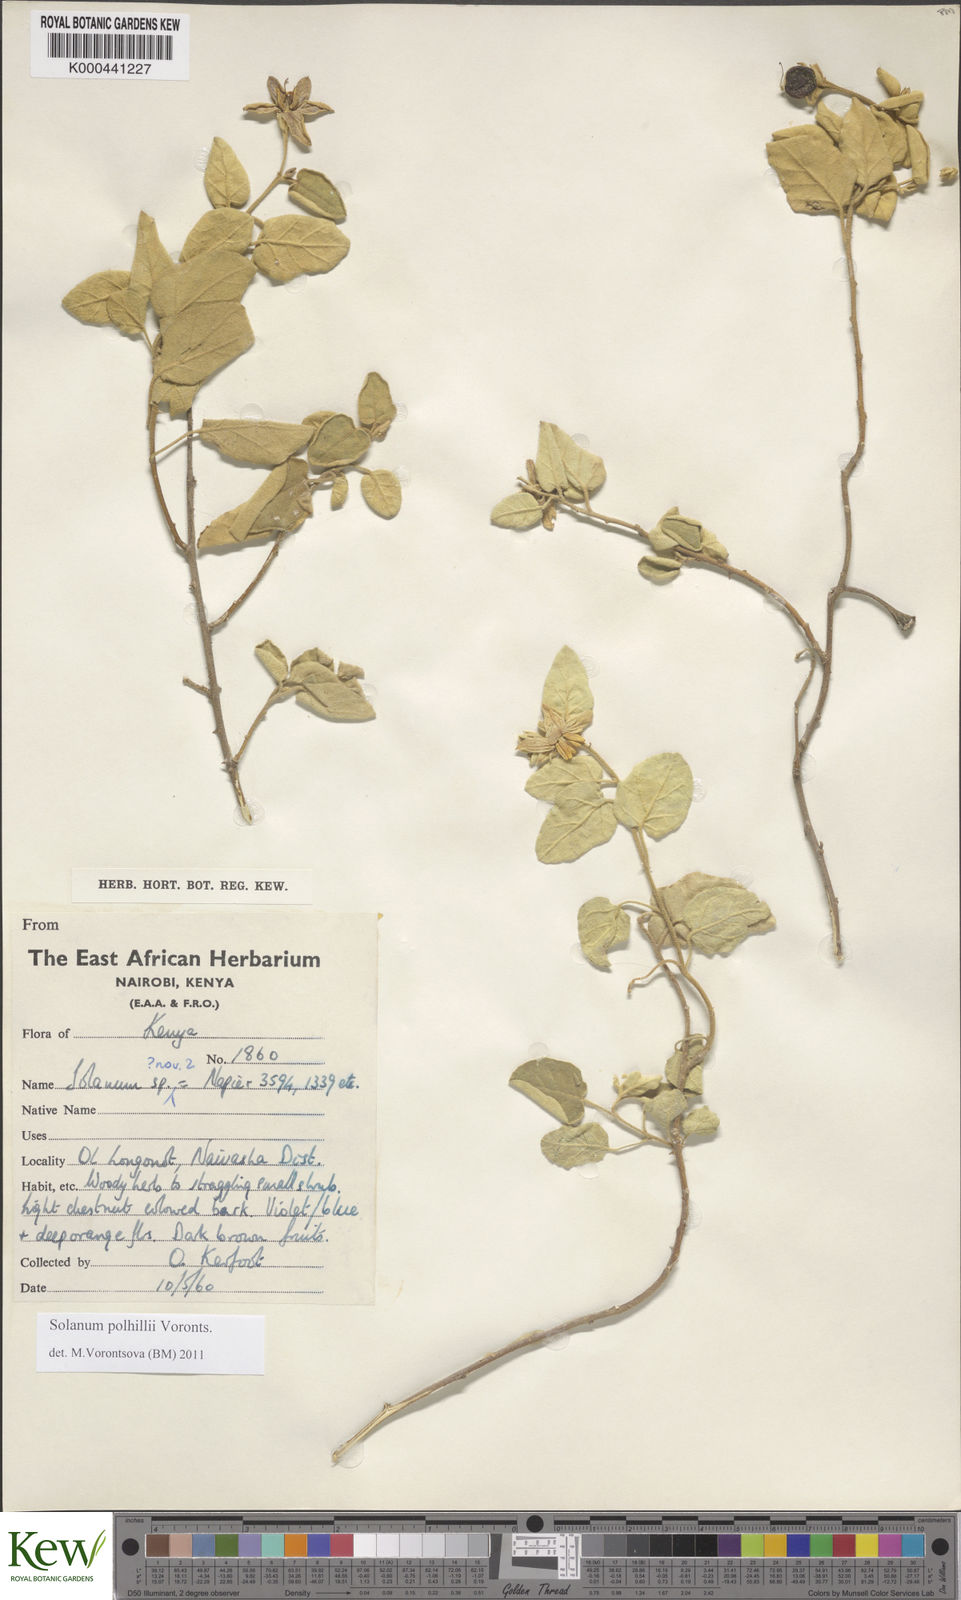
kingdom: Plantae
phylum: Tracheophyta
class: Magnoliopsida
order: Solanales
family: Solanaceae
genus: Solanum
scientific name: Solanum polhillii
